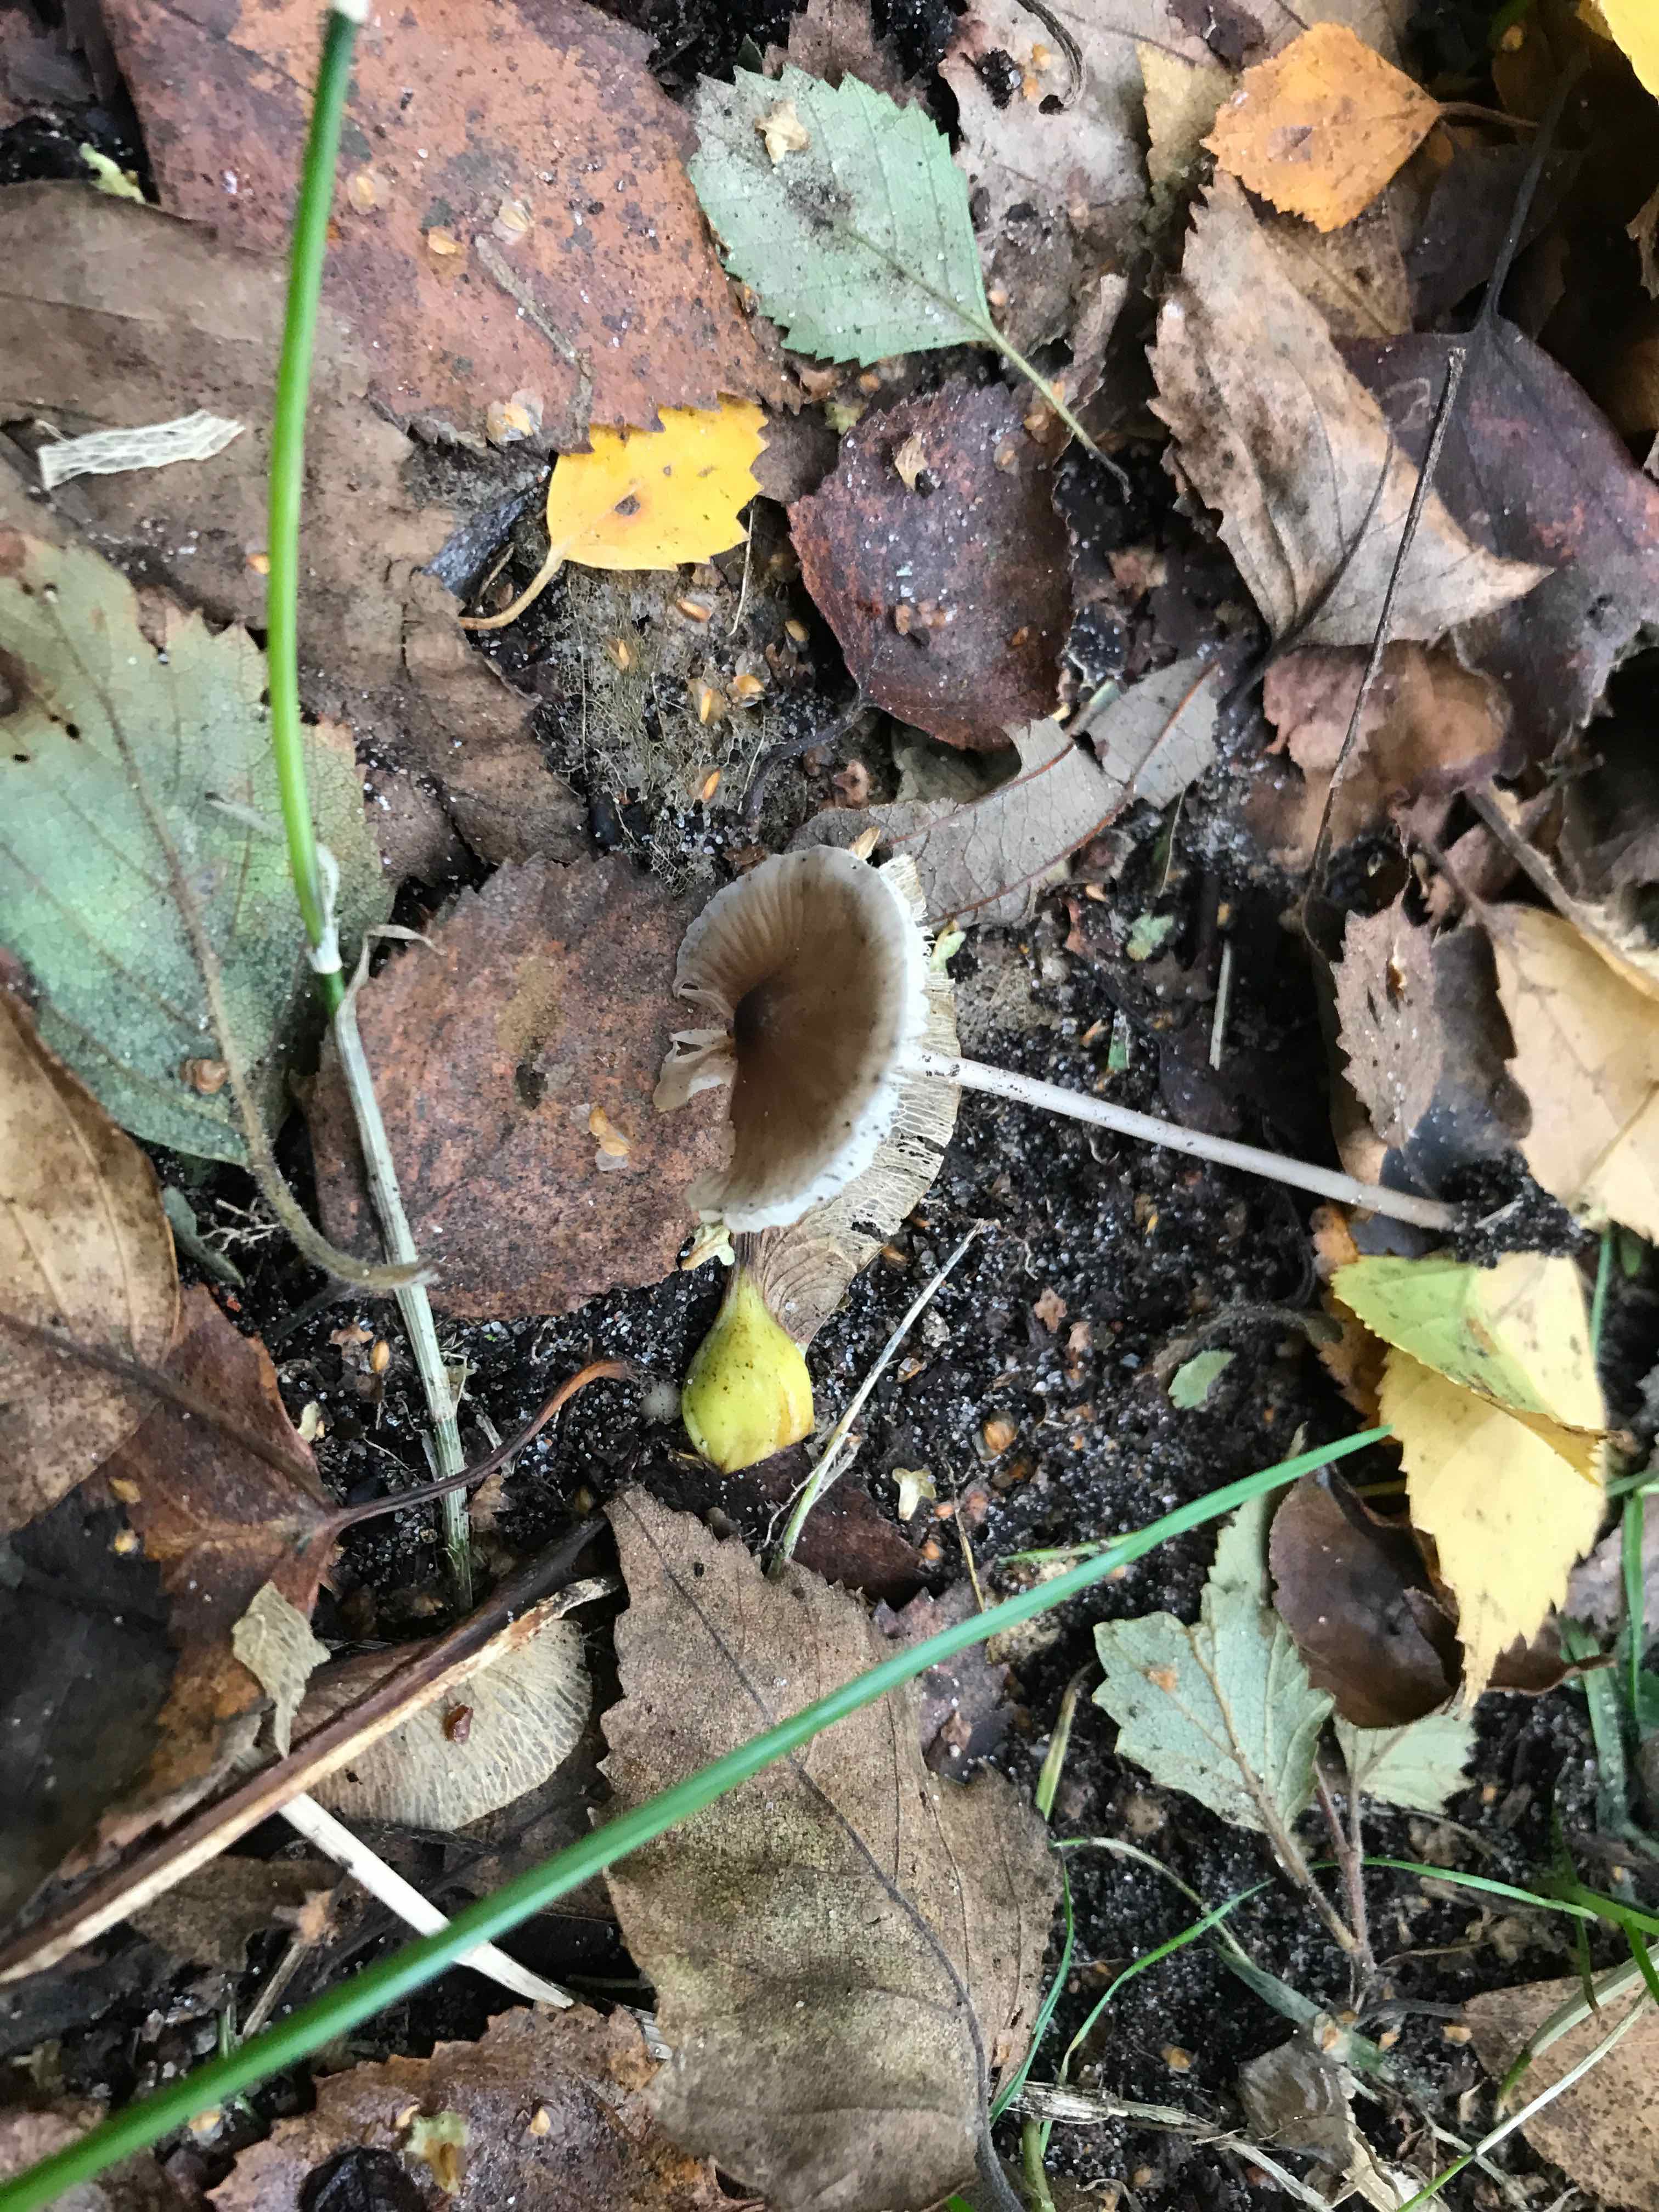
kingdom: Fungi
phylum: Basidiomycota
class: Agaricomycetes
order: Agaricales
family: Mycenaceae
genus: Mycena
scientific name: Mycena
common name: huesvamp
